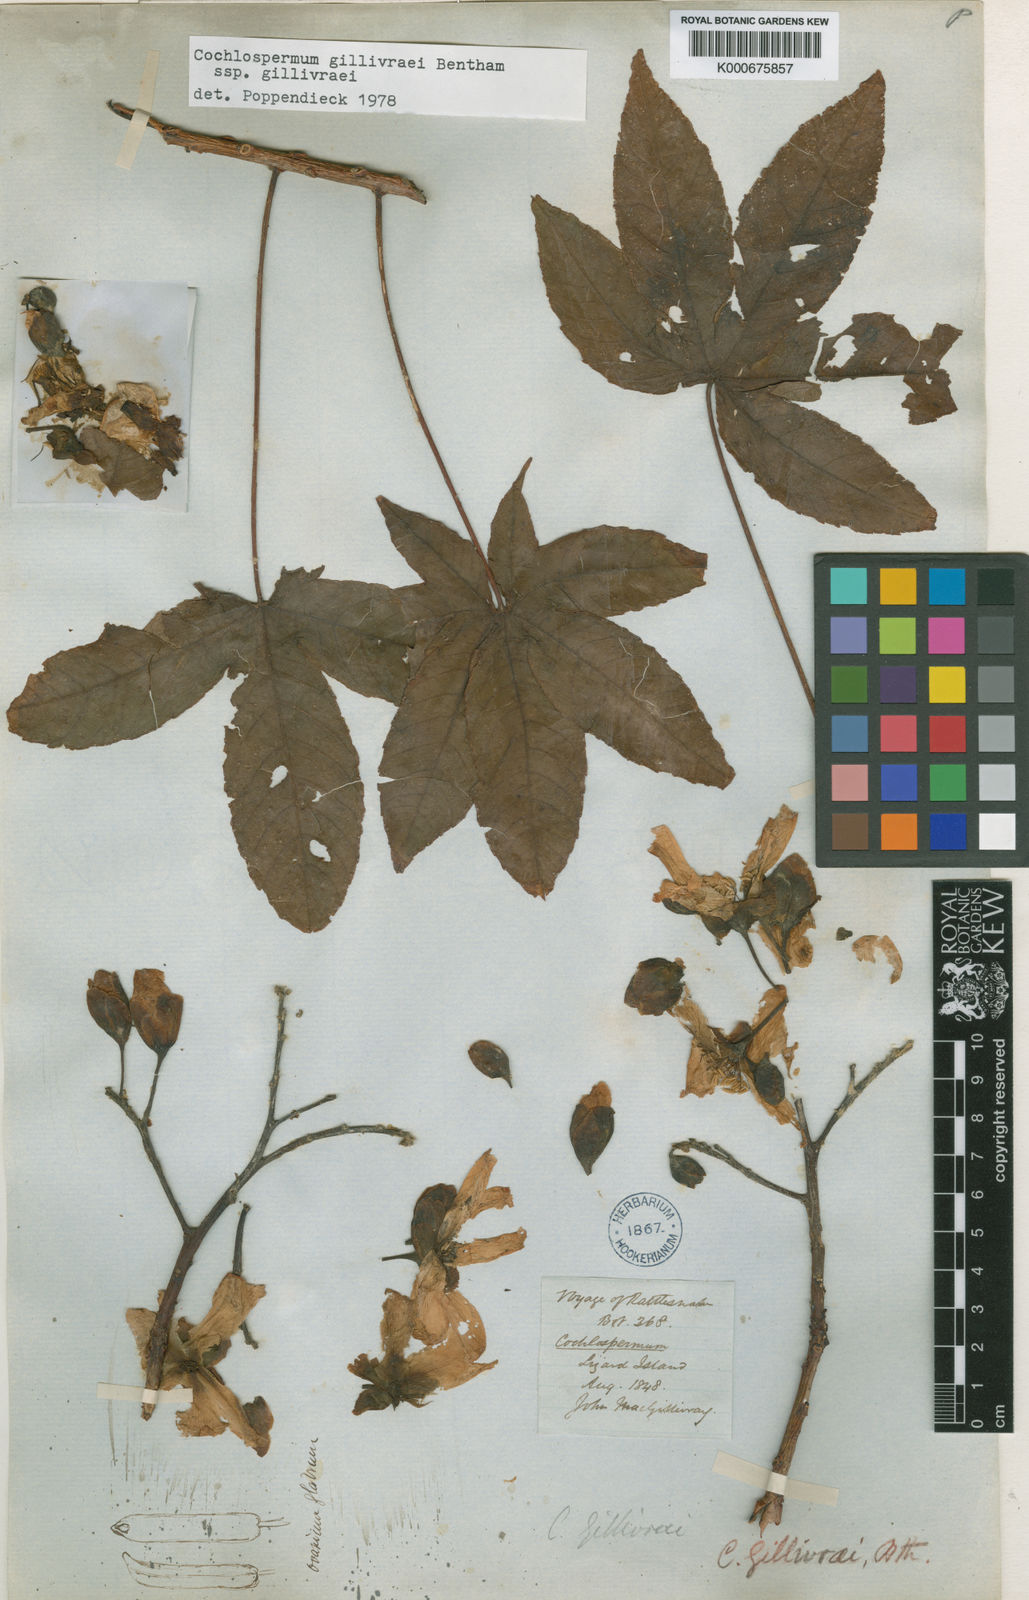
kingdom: Plantae
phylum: Tracheophyta
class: Magnoliopsida
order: Malvales
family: Cochlospermaceae
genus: Cochlospermum
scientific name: Cochlospermum gillivraei
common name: Cottontree
